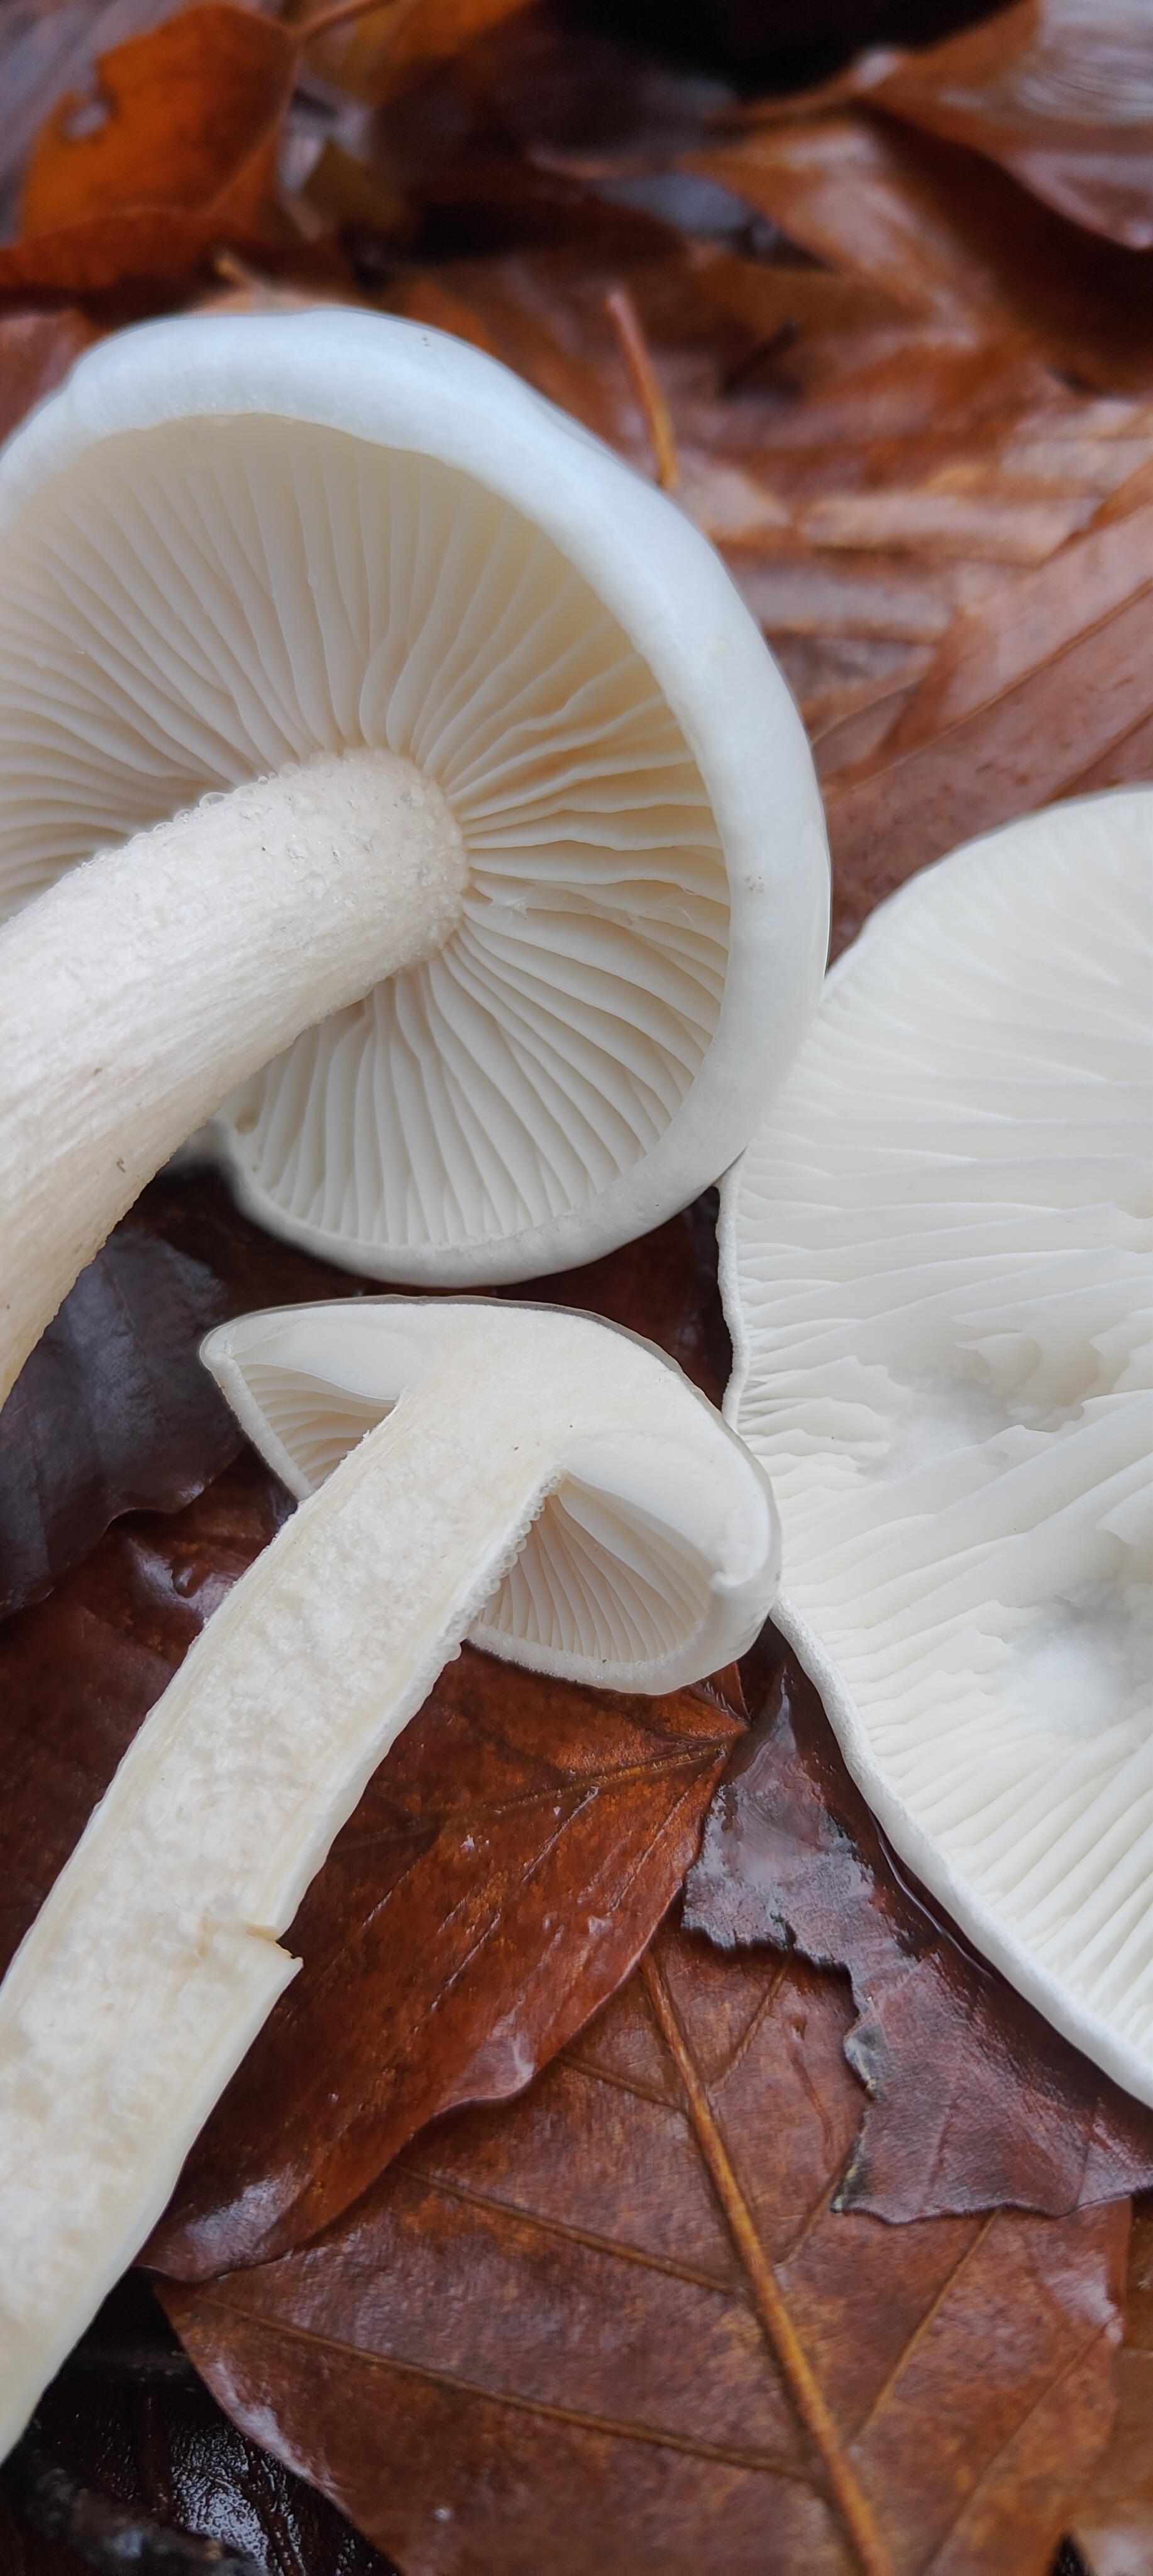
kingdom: Fungi
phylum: Basidiomycota
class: Agaricomycetes
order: Agaricales
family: Hygrophoraceae
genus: Hygrophorus
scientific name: Hygrophorus eburneus
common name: elfenbens-sneglehat
